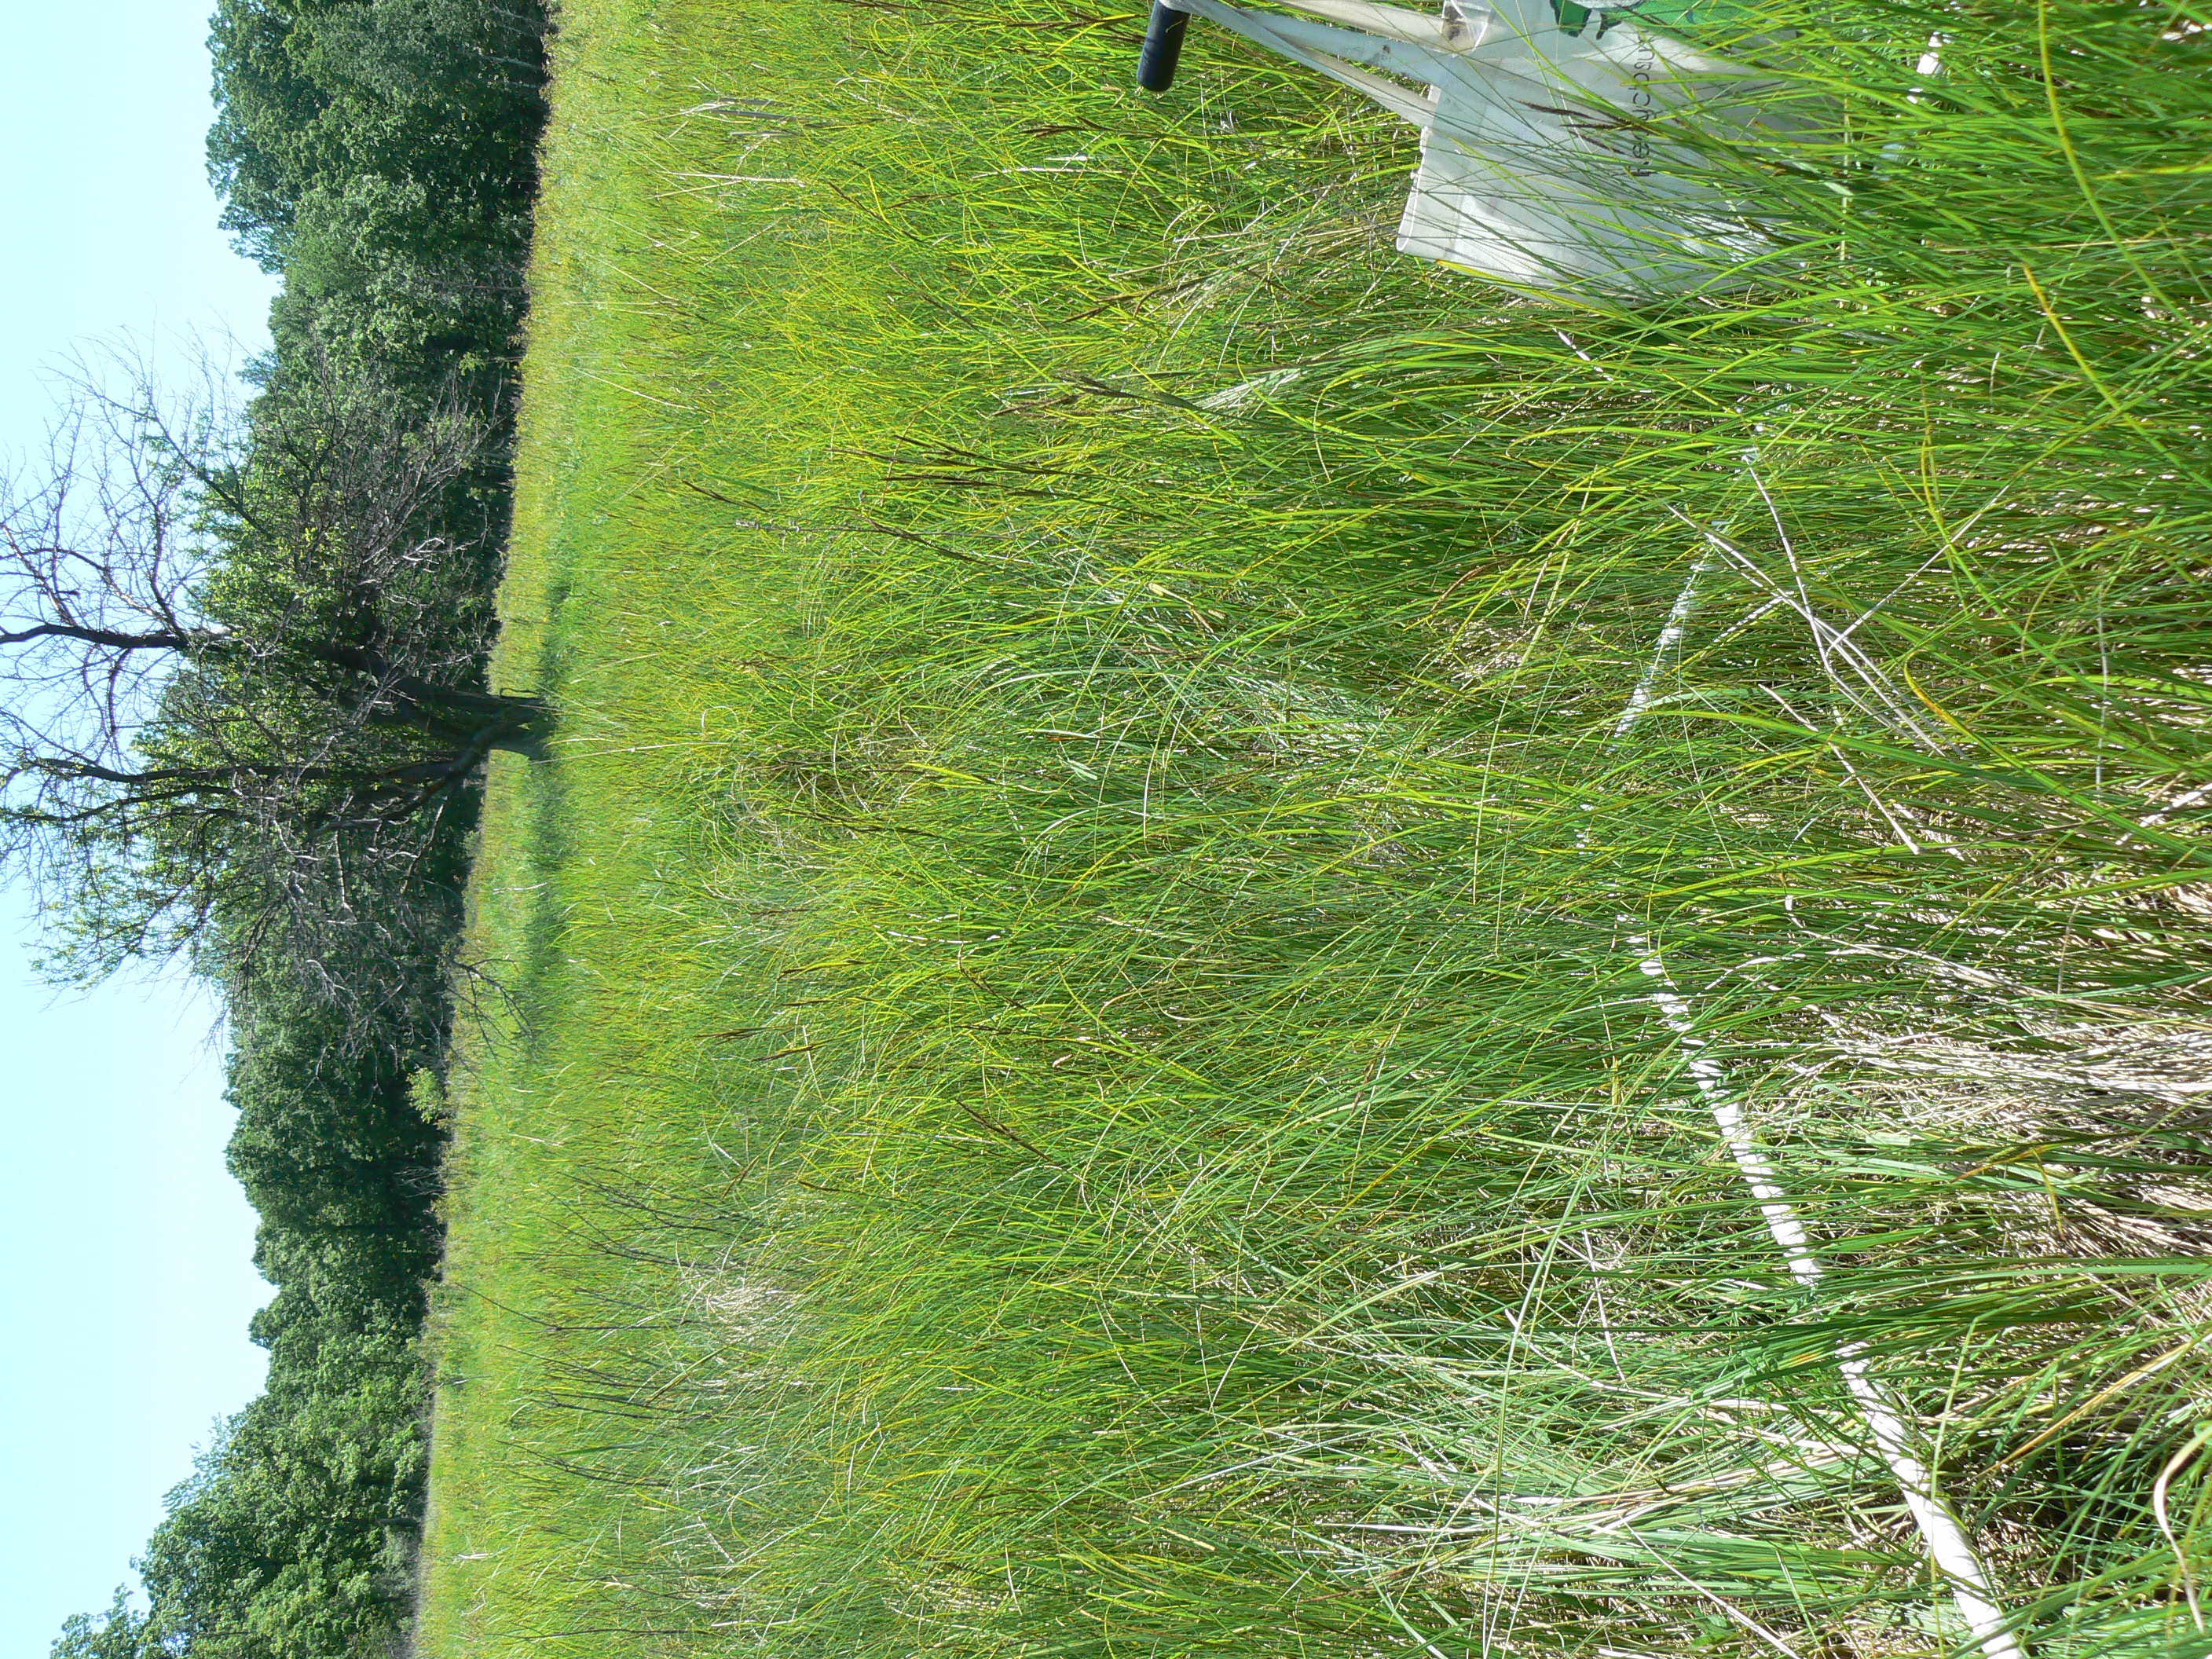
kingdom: Plantae
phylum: Tracheophyta
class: Liliopsida
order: Poales
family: Cyperaceae
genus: Carex
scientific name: Carex lasiocarpa
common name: Slender sedge
